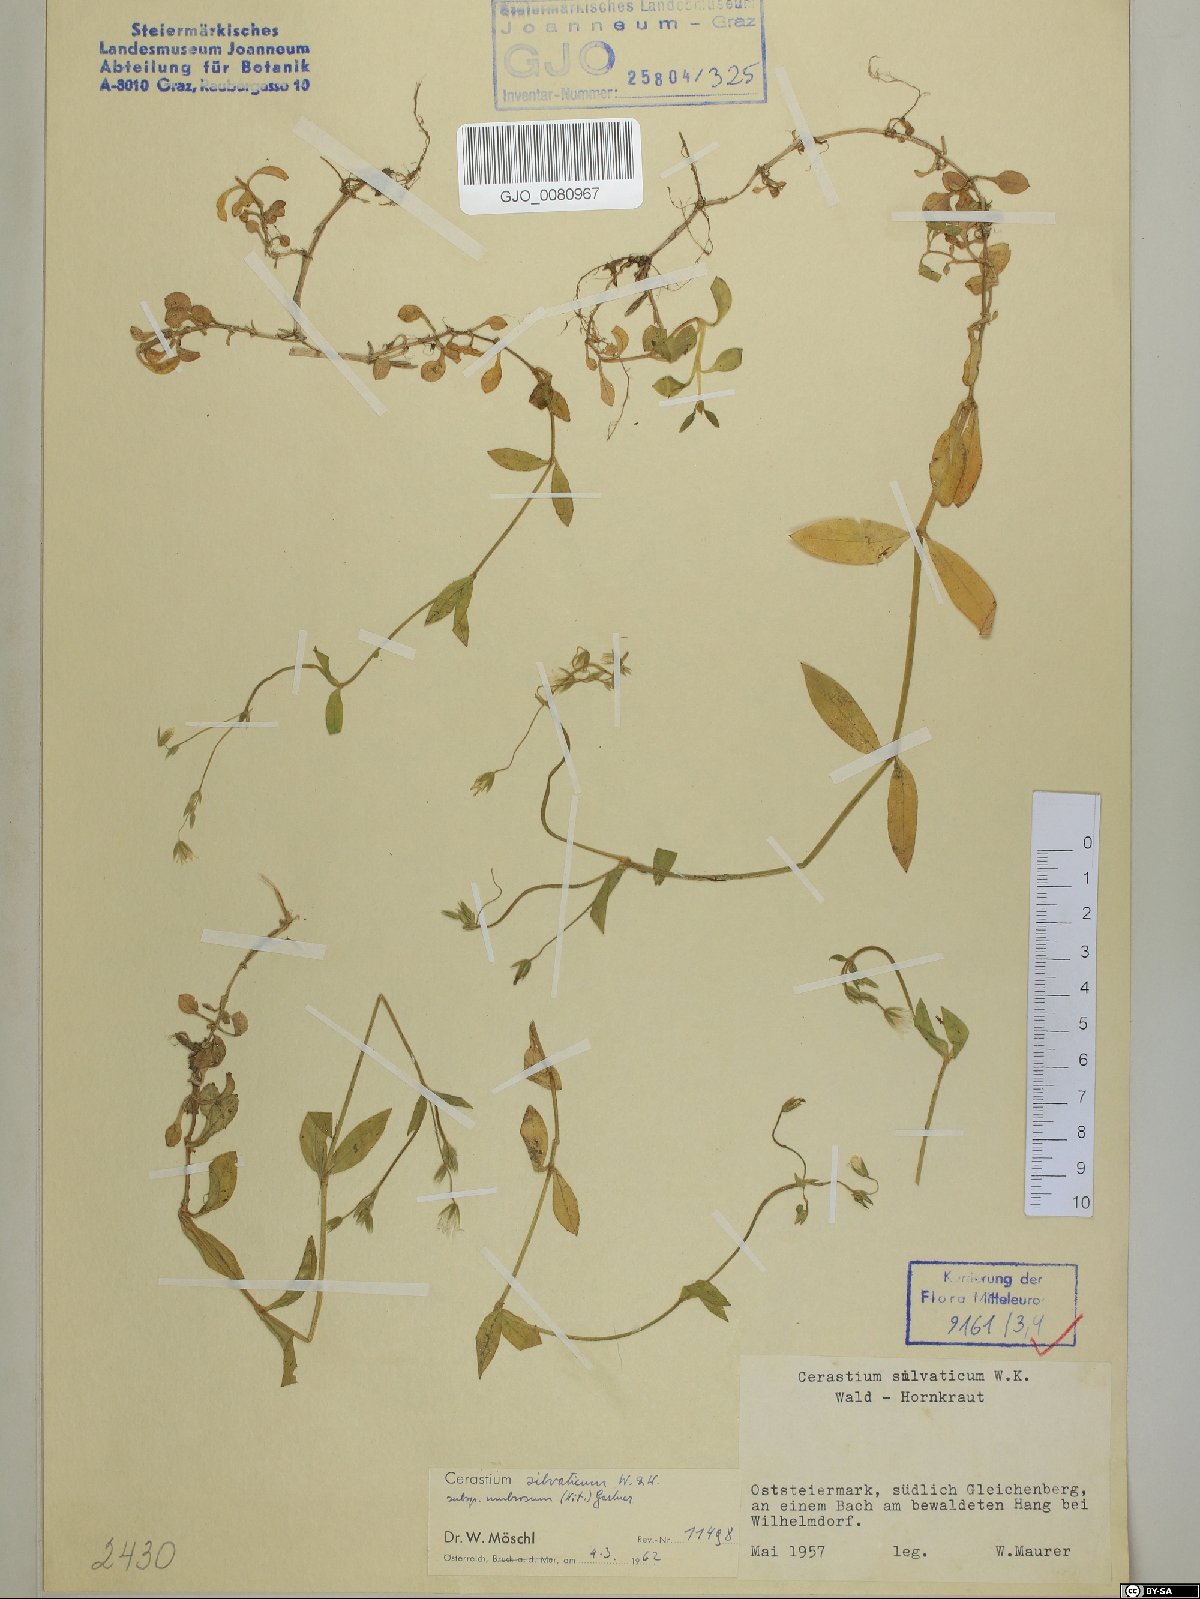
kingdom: Plantae
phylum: Tracheophyta
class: Magnoliopsida
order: Caryophyllales
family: Caryophyllaceae
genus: Cerastium
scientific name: Cerastium sylvaticum
